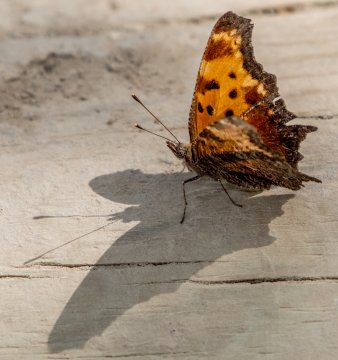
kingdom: Animalia
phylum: Arthropoda
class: Insecta
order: Lepidoptera
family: Nymphalidae
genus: Polygonia
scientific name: Polygonia progne
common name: Gray Comma
